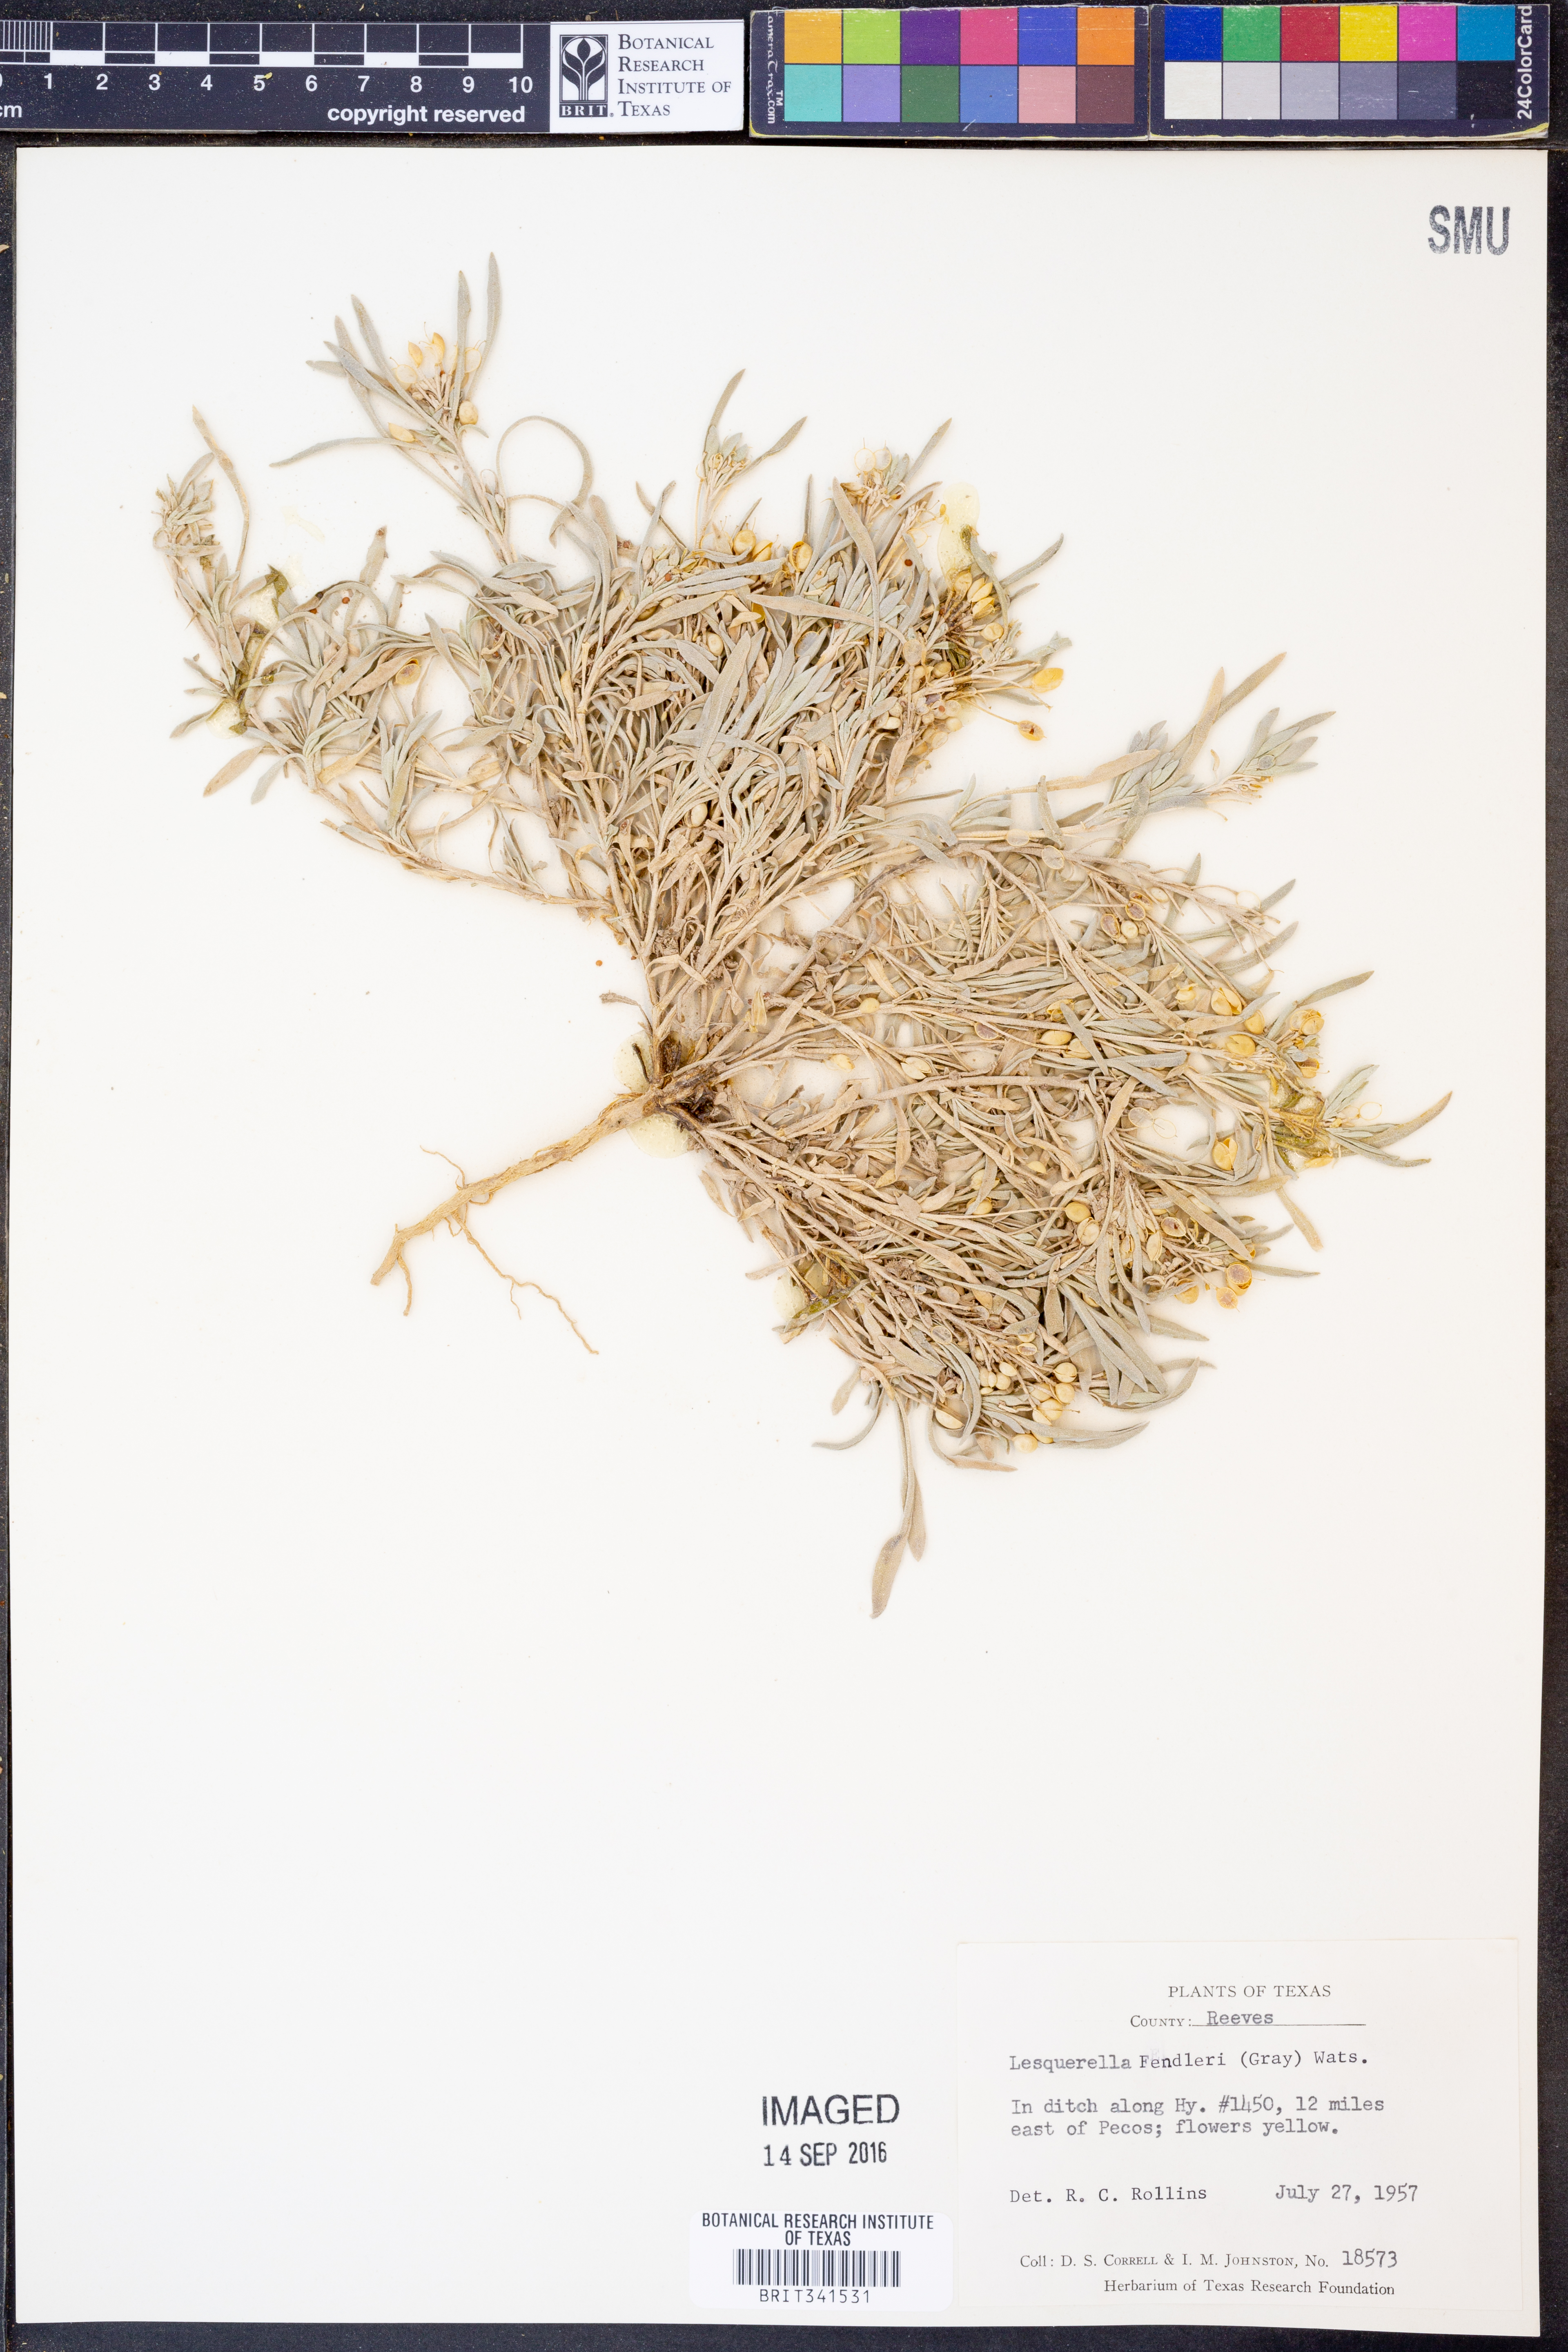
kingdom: Plantae
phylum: Tracheophyta
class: Magnoliopsida
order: Brassicales
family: Brassicaceae
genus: Physaria
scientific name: Physaria fendleri
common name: Fendler's bladderpod
